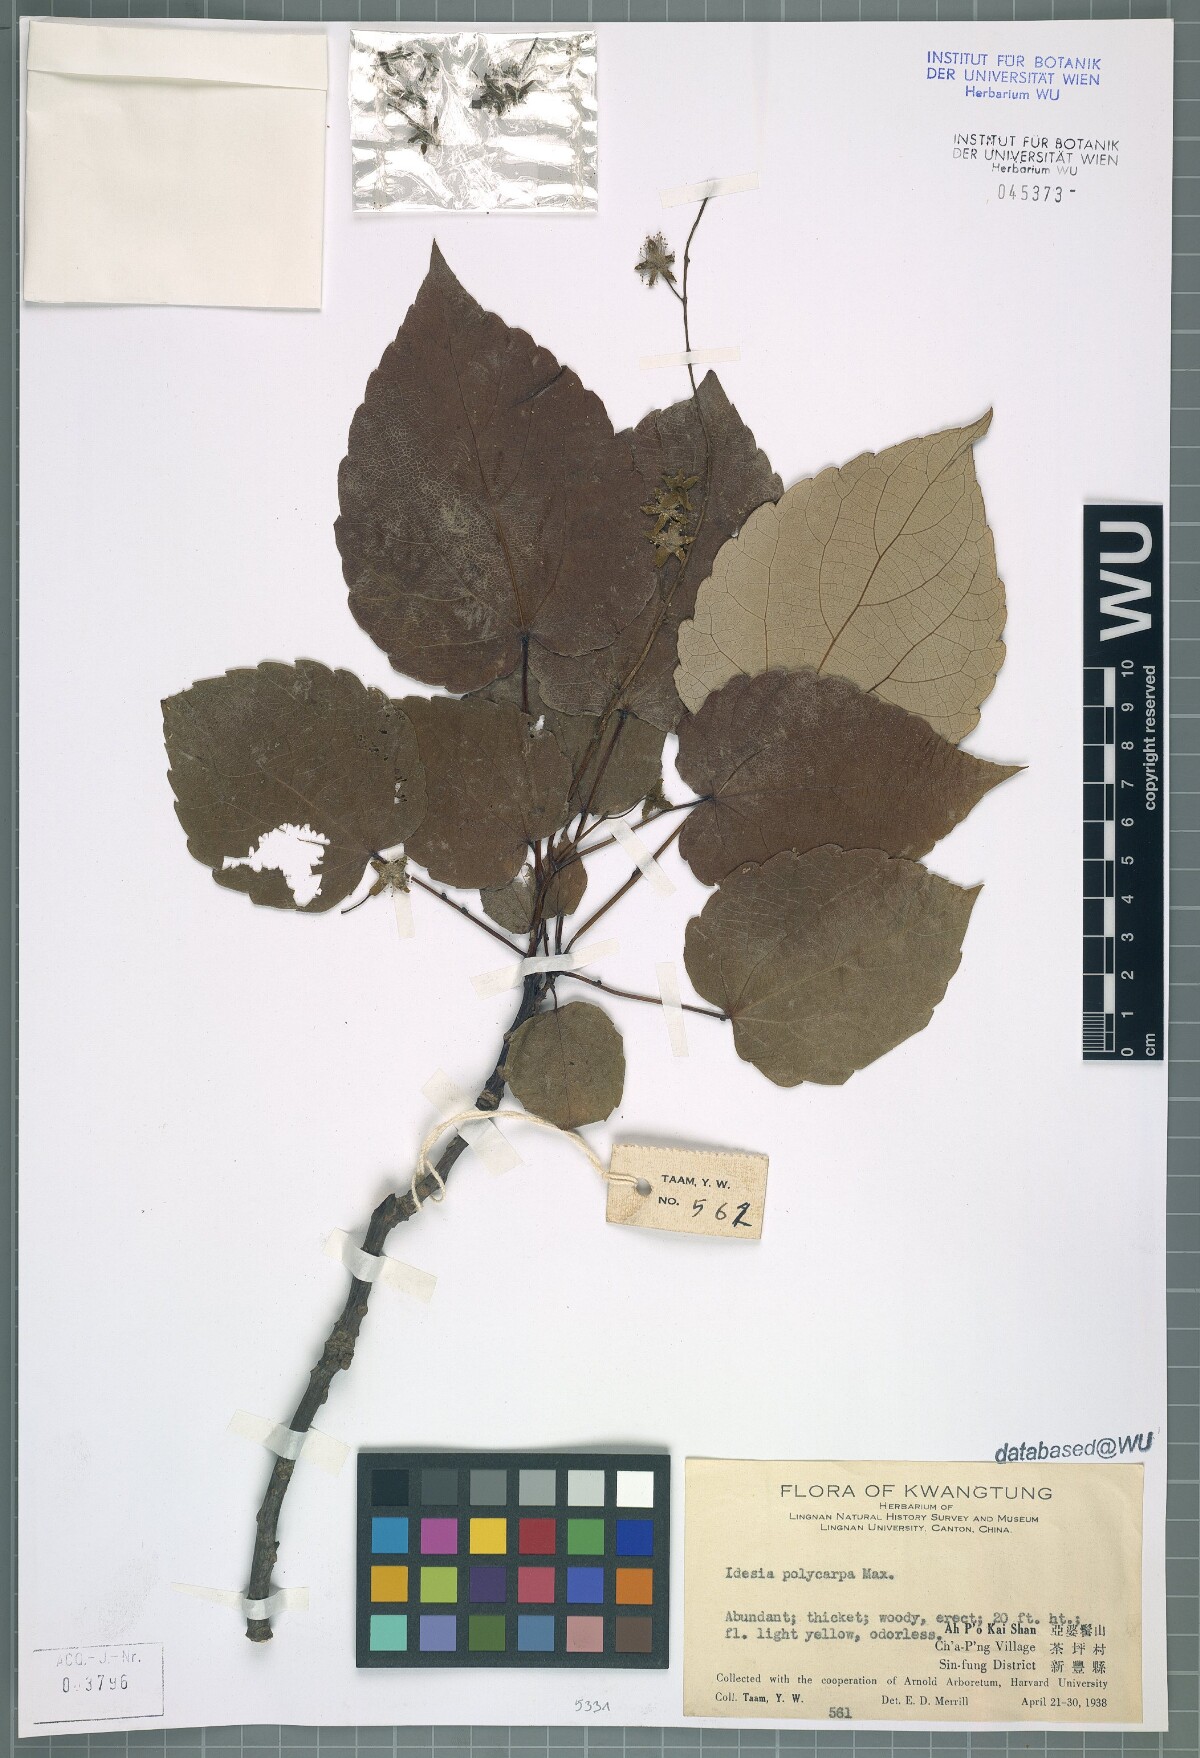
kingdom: Plantae
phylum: Tracheophyta
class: Magnoliopsida
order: Malpighiales
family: Salicaceae
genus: Idesia
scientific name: Idesia polycarpa
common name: Idesia tree
